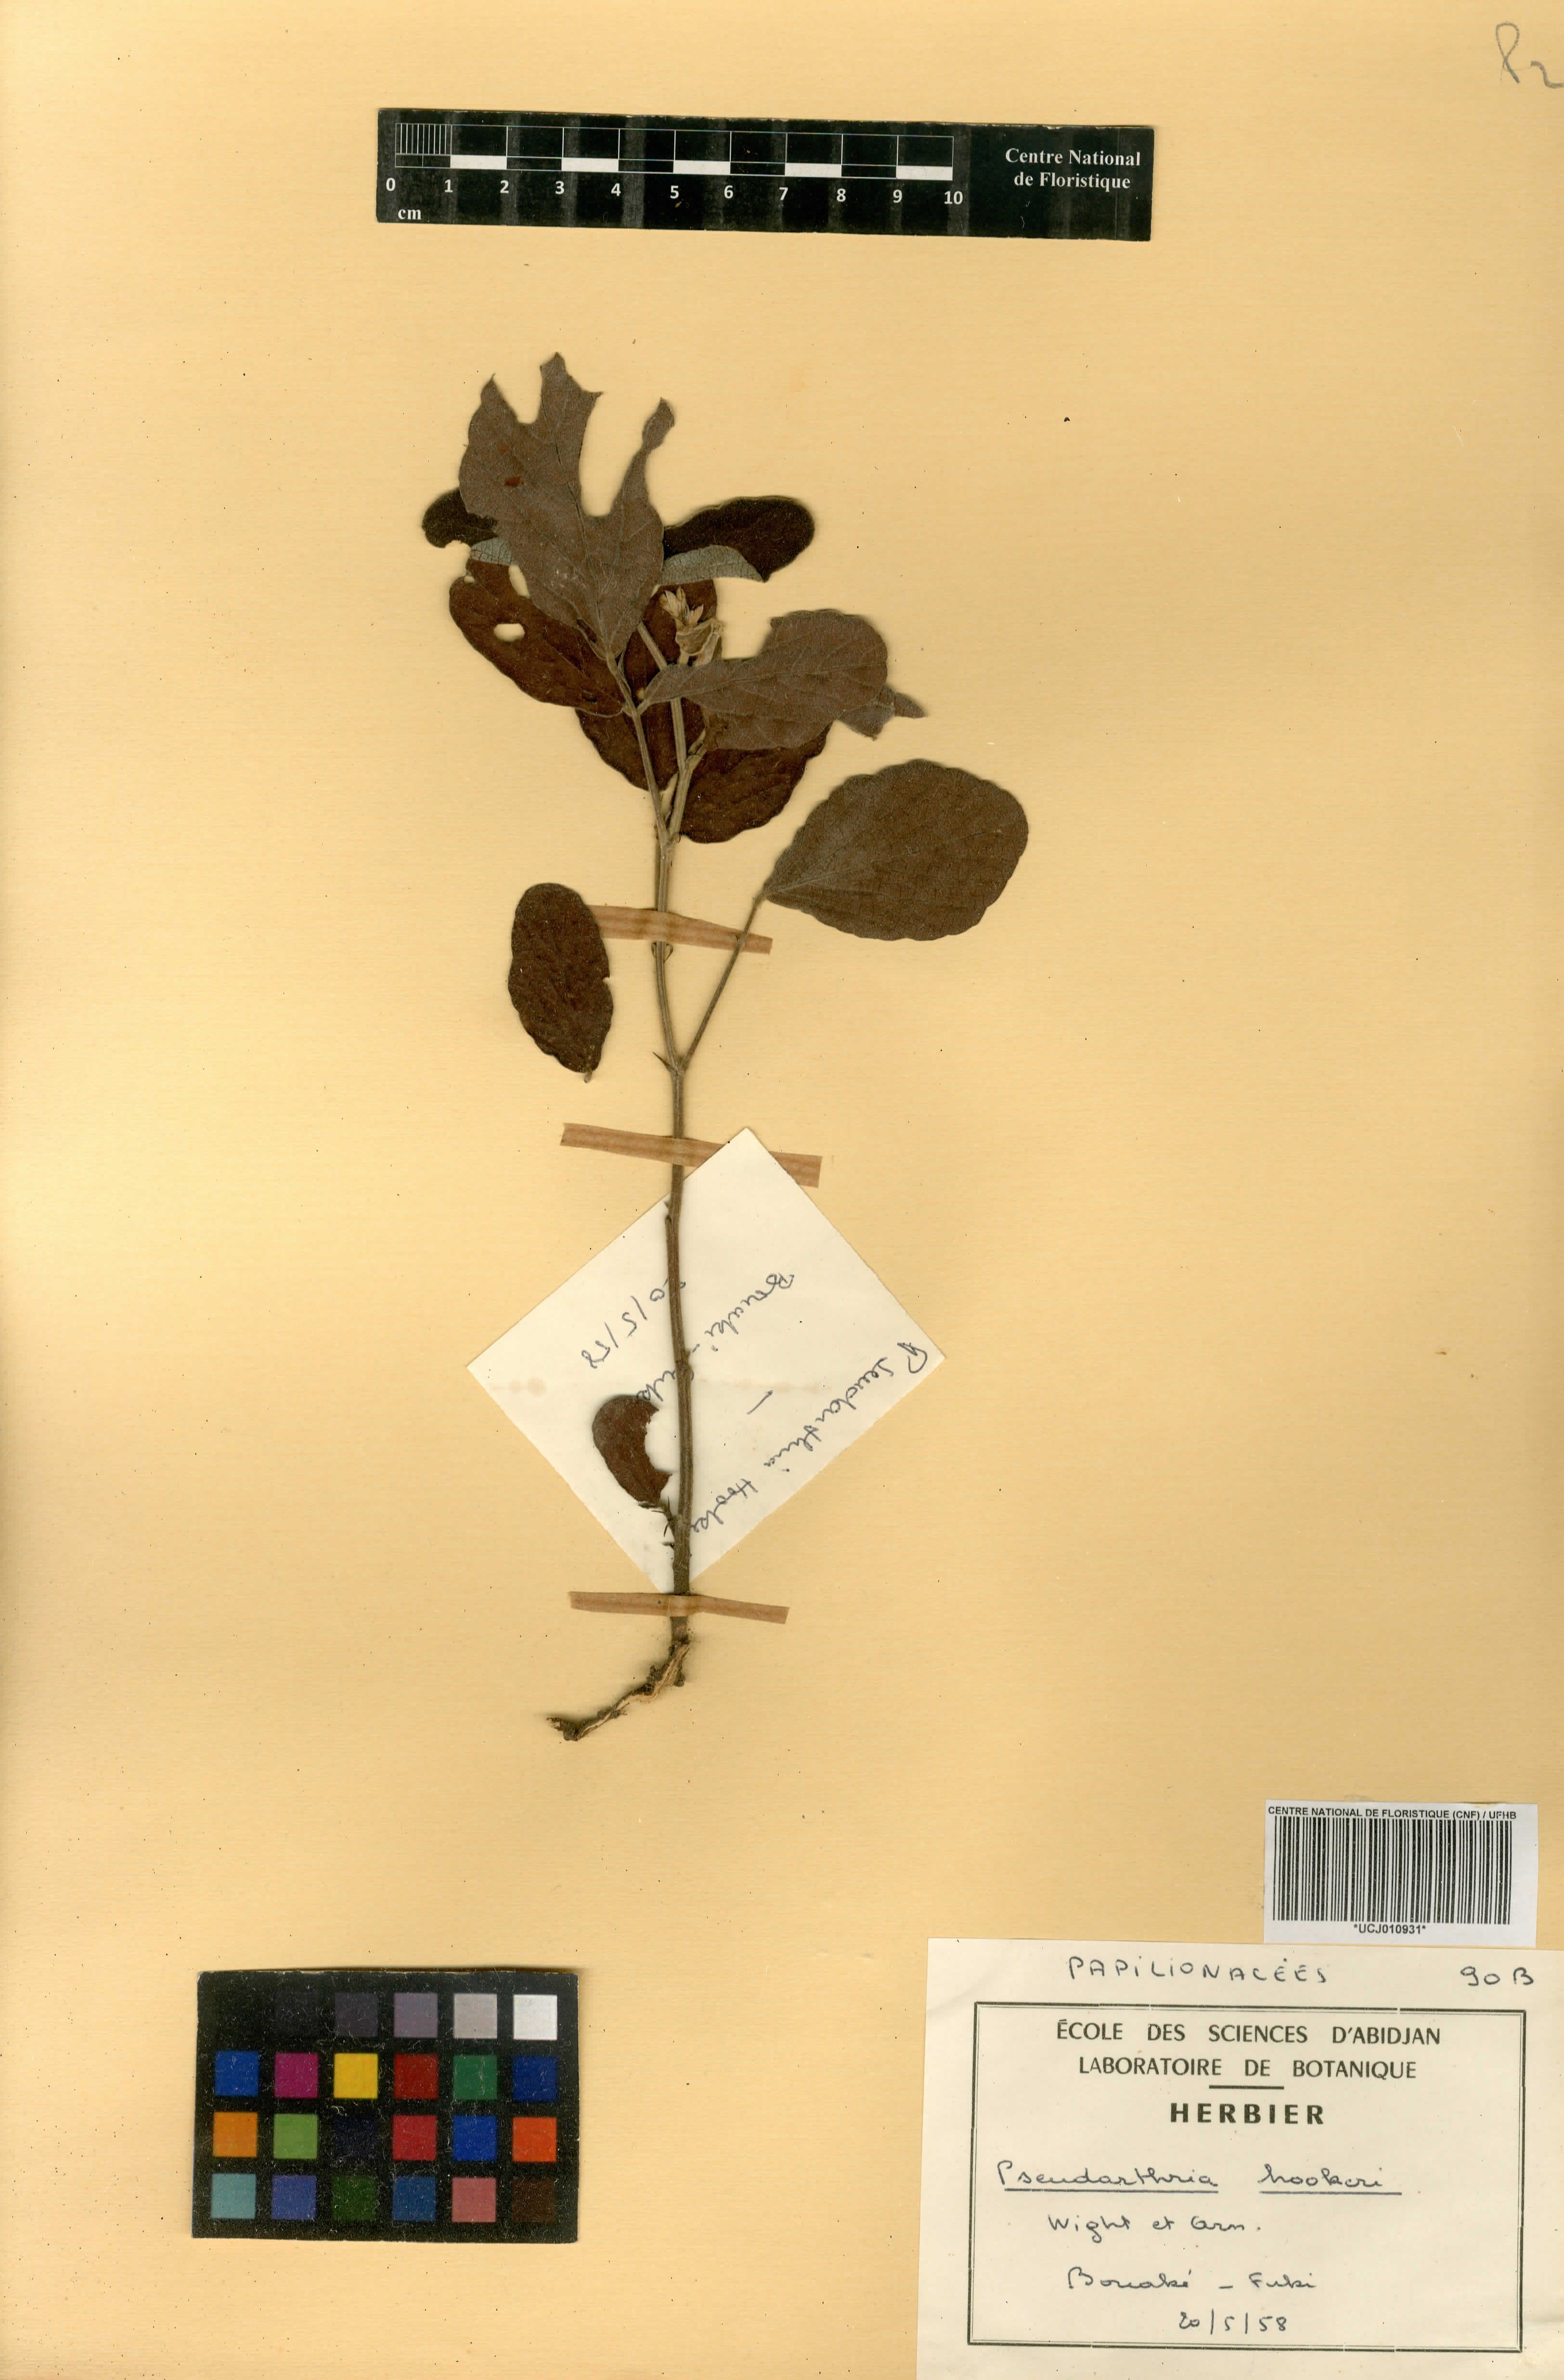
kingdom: Plantae
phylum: Tracheophyta
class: Magnoliopsida
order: Fabales
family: Fabaceae
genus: Pseudarthria
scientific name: Pseudarthria hookeri
